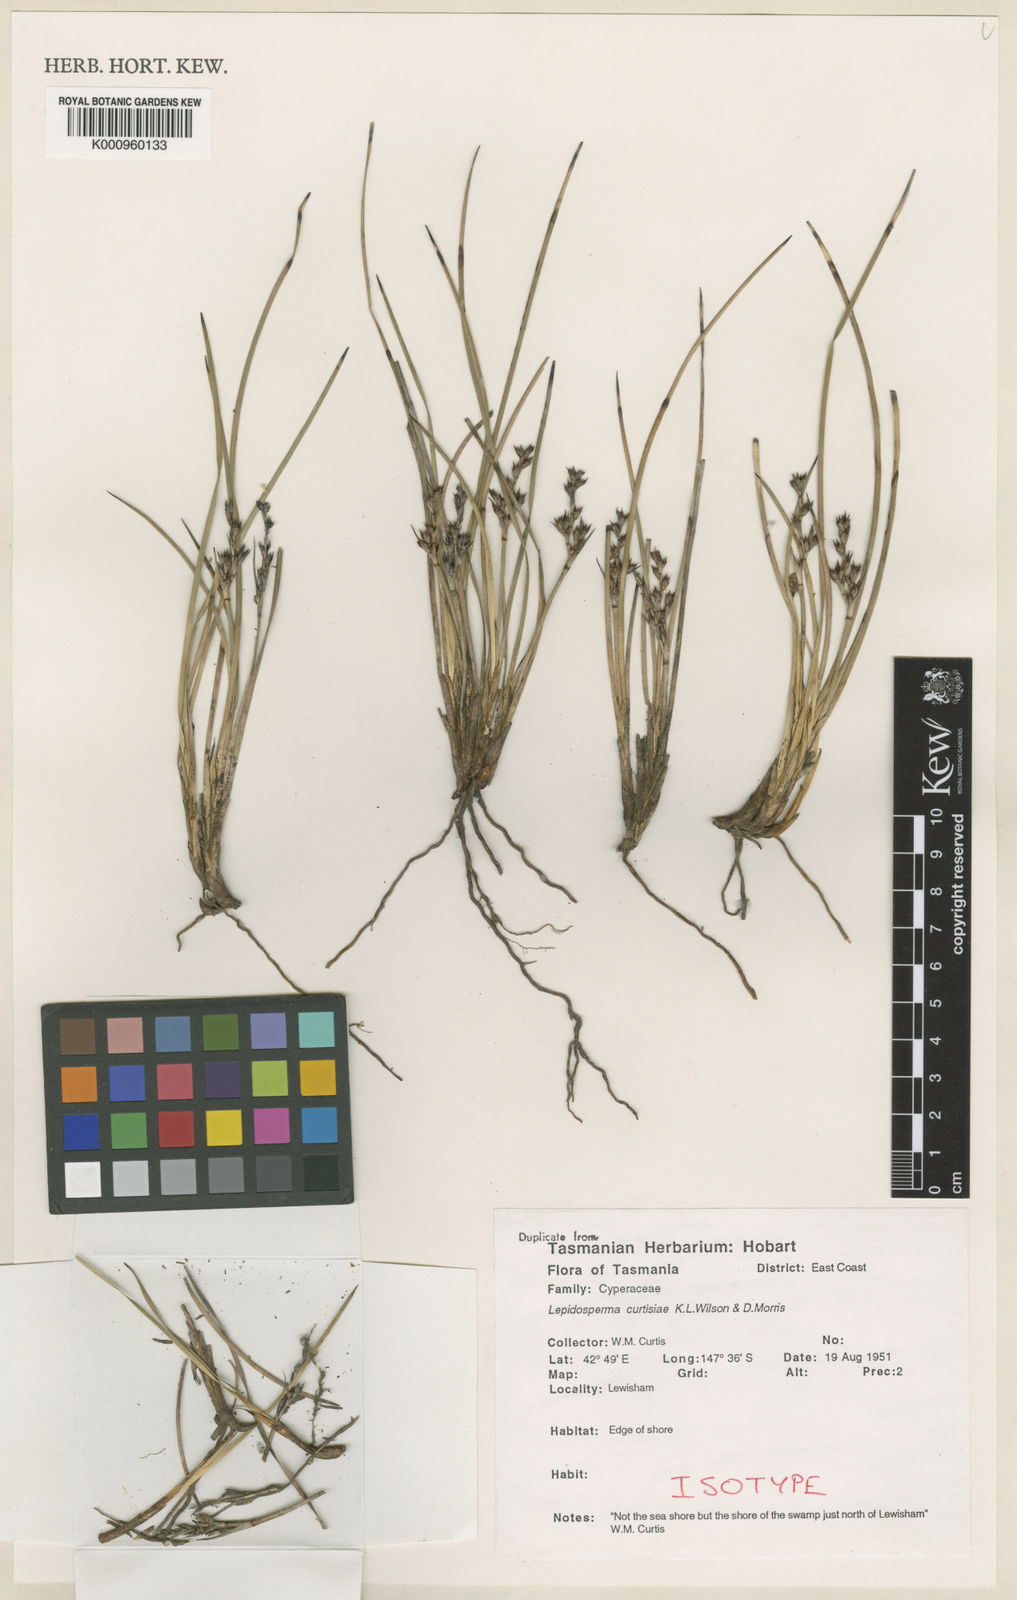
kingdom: Plantae
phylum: Tracheophyta
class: Liliopsida
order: Poales
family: Cyperaceae
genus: Lepidosperma
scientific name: Lepidosperma curtisiae
